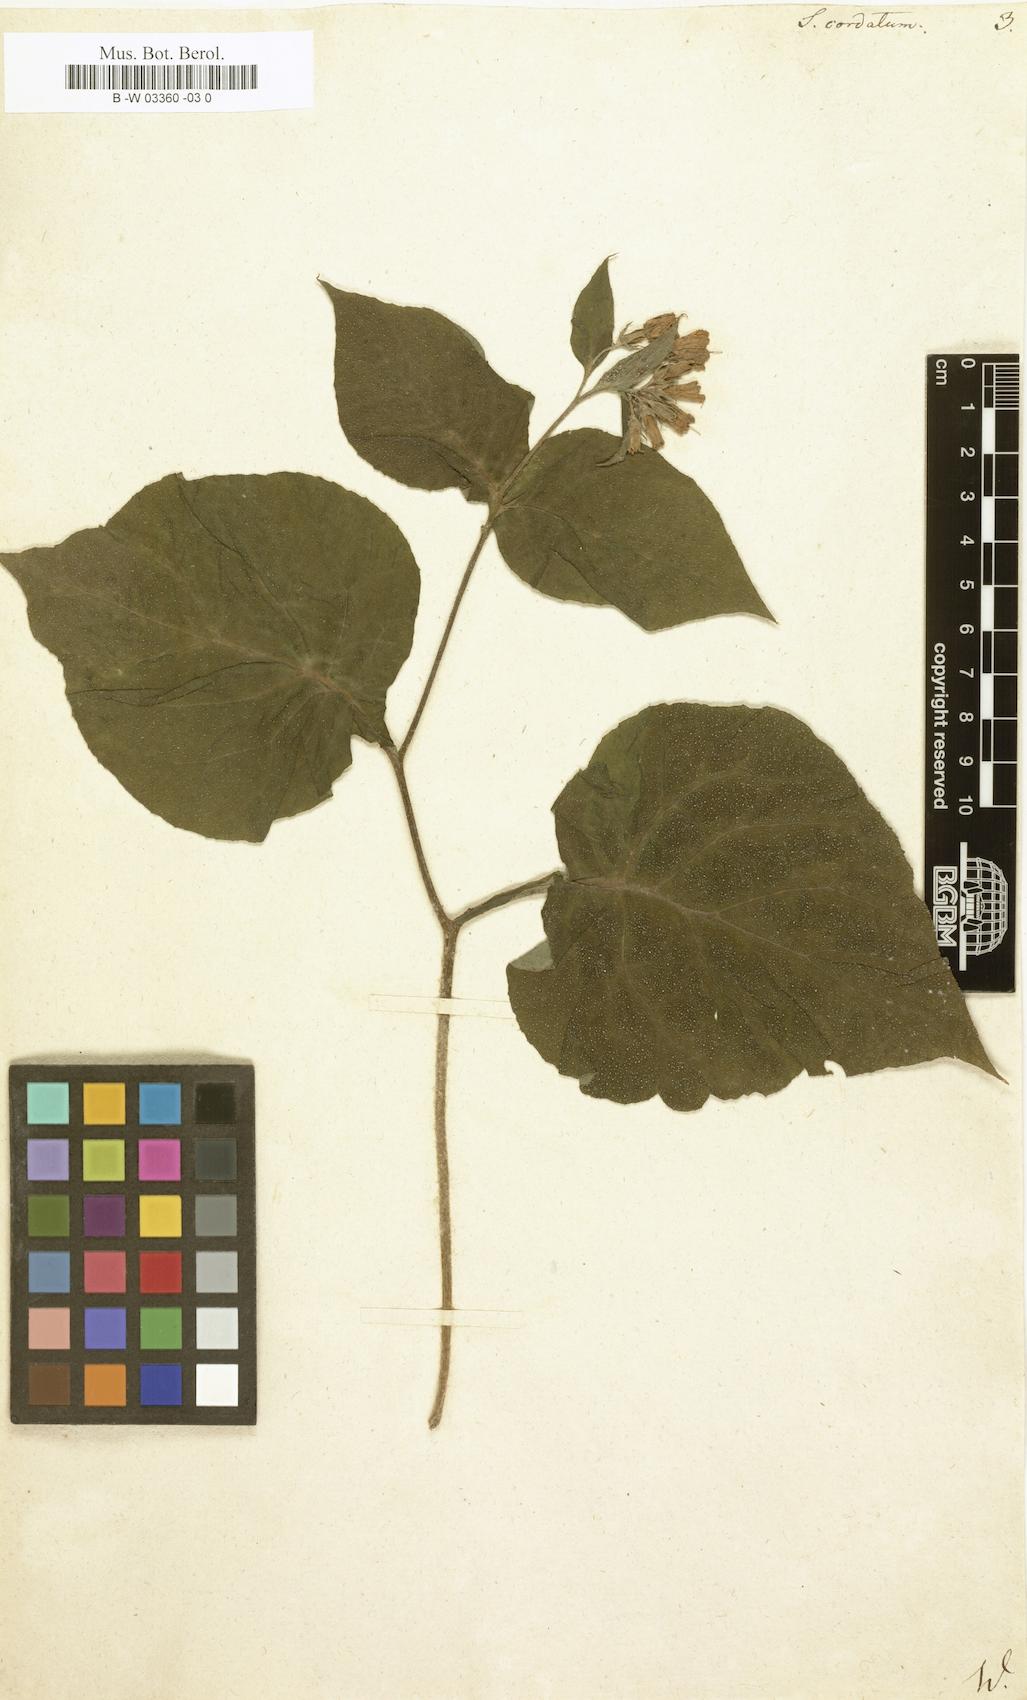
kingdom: Plantae
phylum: Tracheophyta
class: Magnoliopsida
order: Boraginales
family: Boraginaceae
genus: Symphytum
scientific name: Symphytum cordatum
